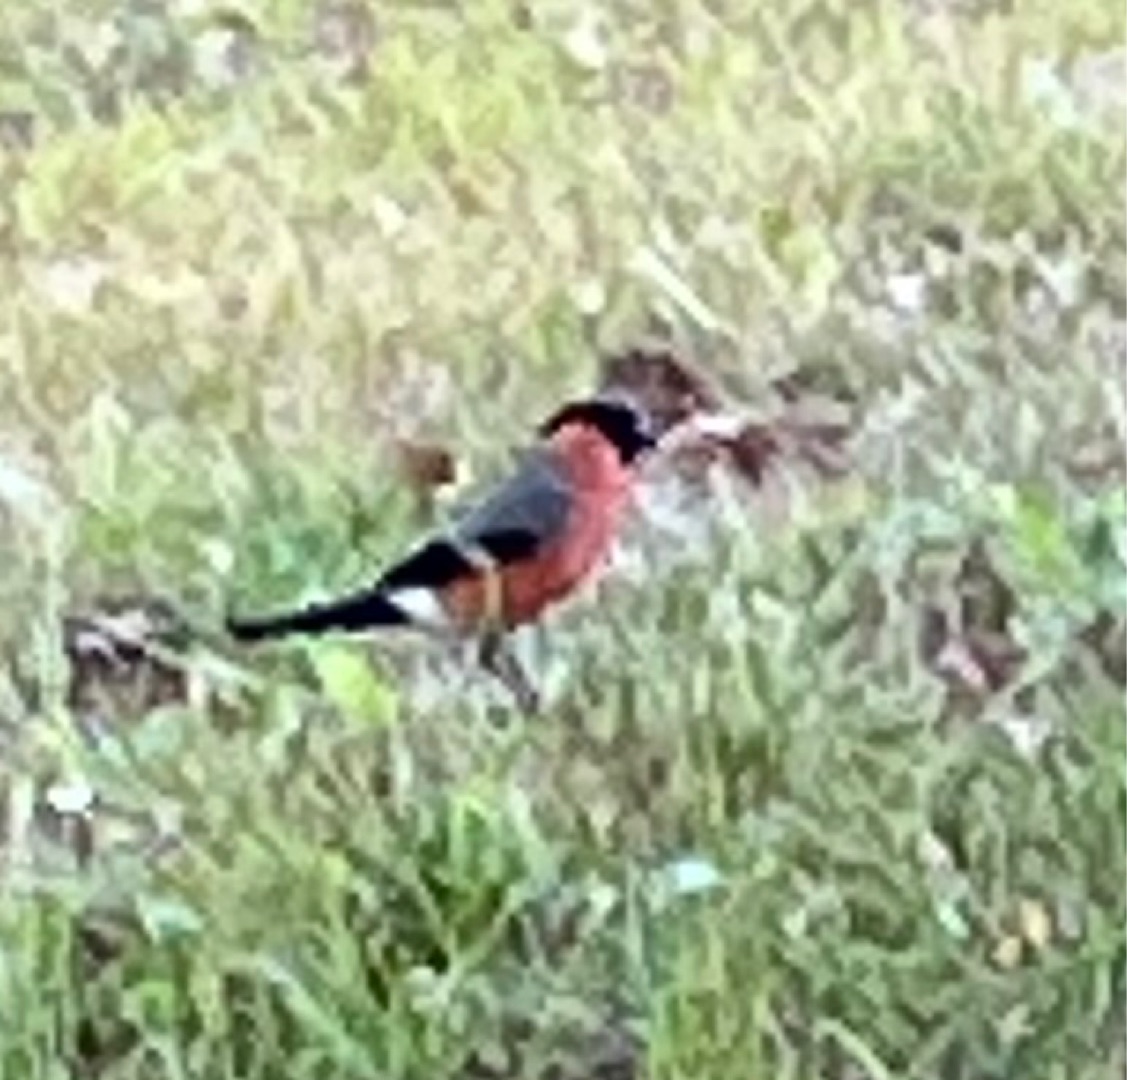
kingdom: Animalia
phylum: Chordata
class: Aves
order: Passeriformes
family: Fringillidae
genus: Pyrrhula
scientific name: Pyrrhula pyrrhula
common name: Dompap
